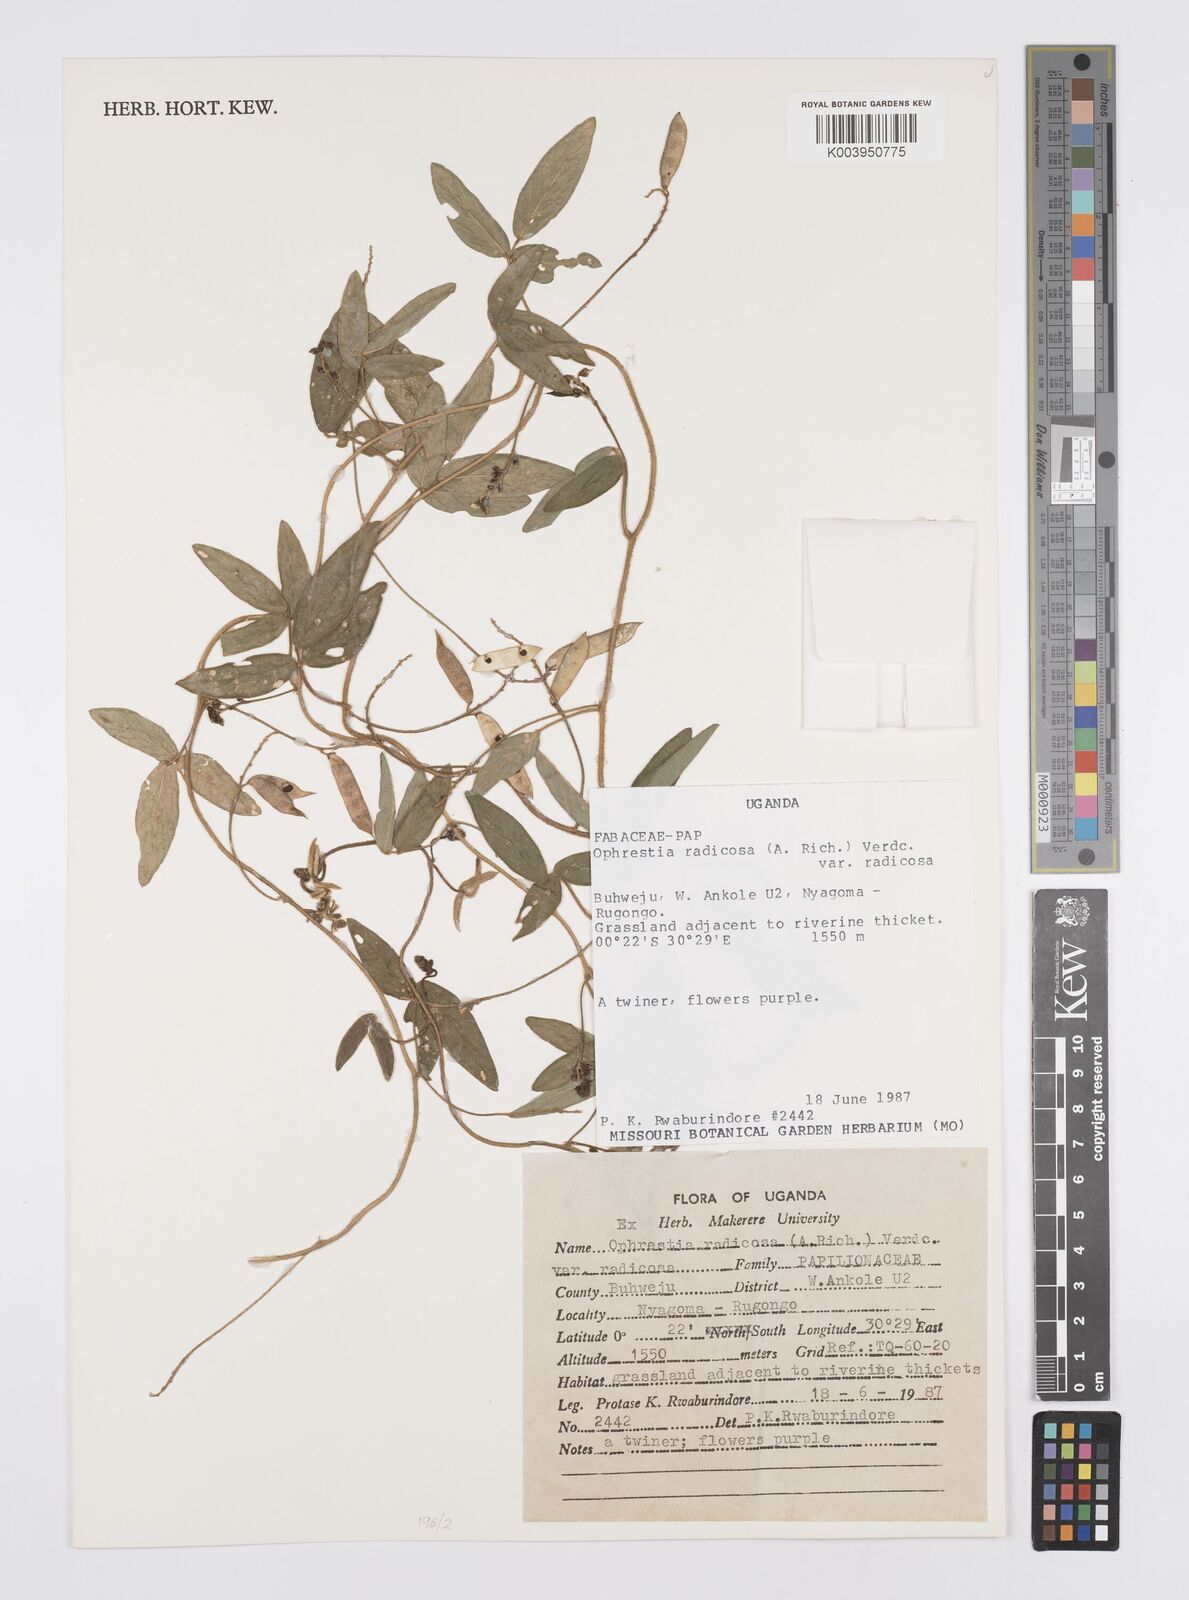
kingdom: Plantae
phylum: Tracheophyta
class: Magnoliopsida
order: Fabales
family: Fabaceae
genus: Ophrestia
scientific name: Ophrestia radicosa
